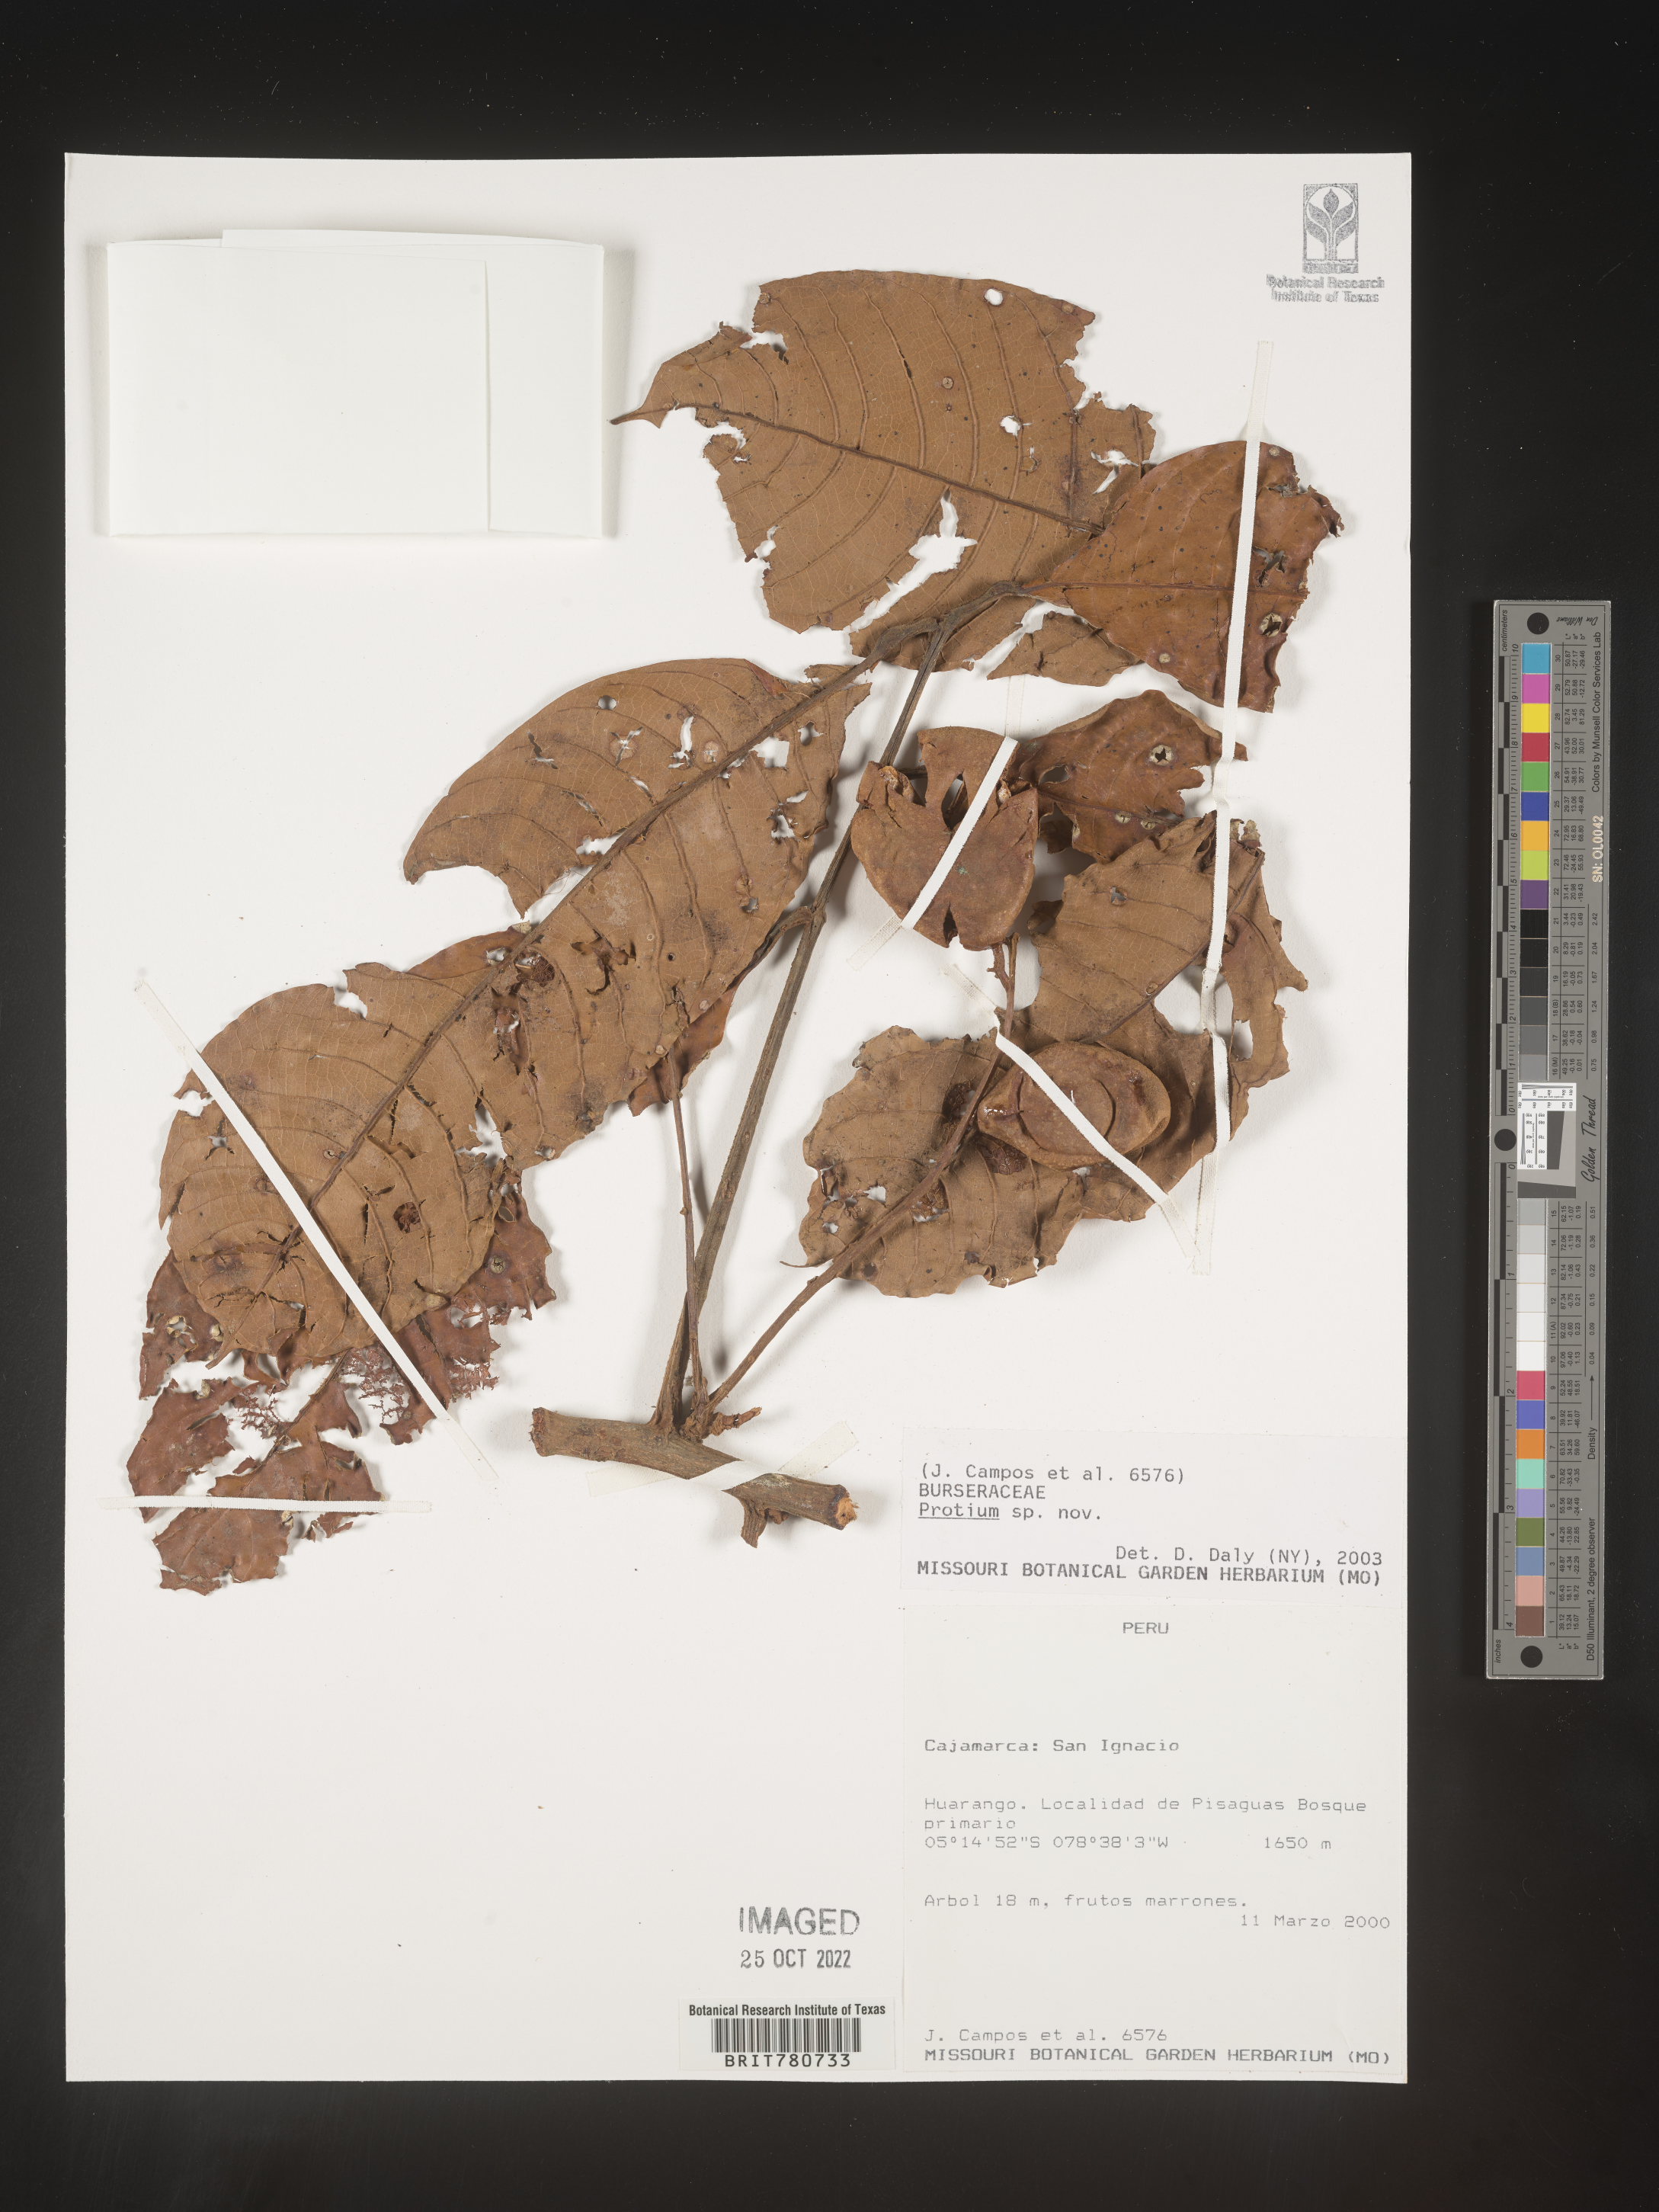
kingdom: Plantae
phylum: Tracheophyta
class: Magnoliopsida
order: Sapindales
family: Burseraceae
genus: Protium
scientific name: Protium
